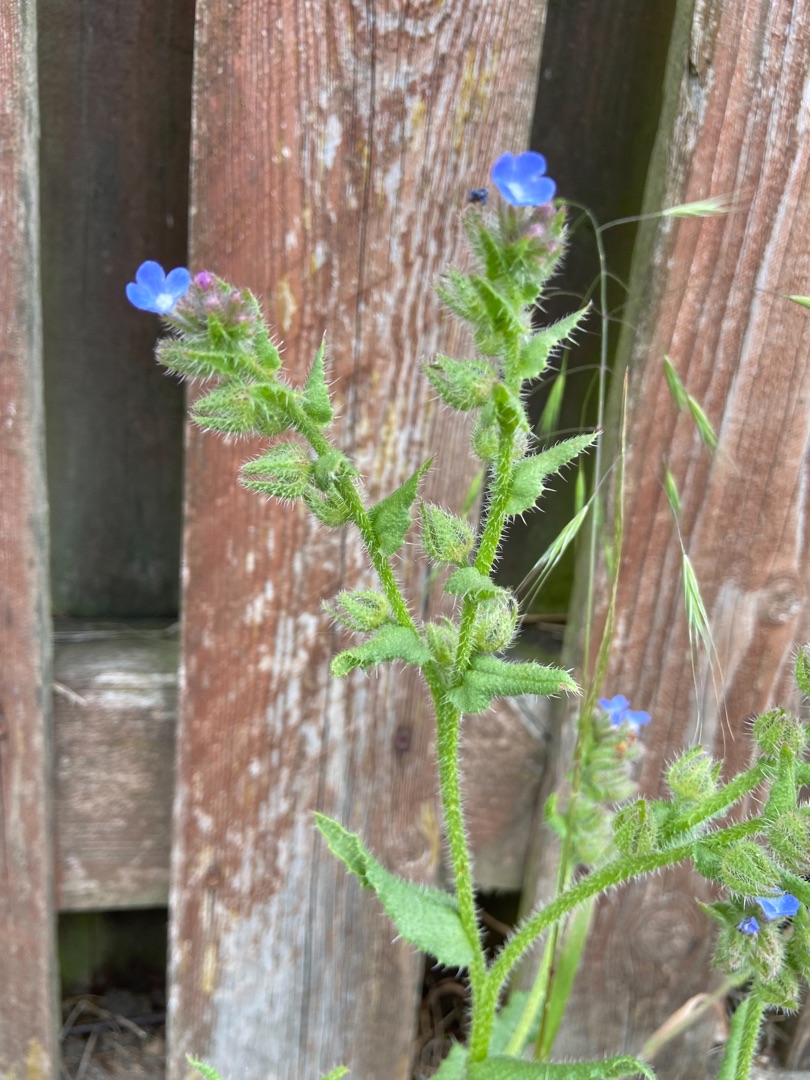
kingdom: Plantae
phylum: Tracheophyta
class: Magnoliopsida
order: Boraginales
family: Boraginaceae
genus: Lycopsis
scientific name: Lycopsis arvensis
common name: Krumhals
